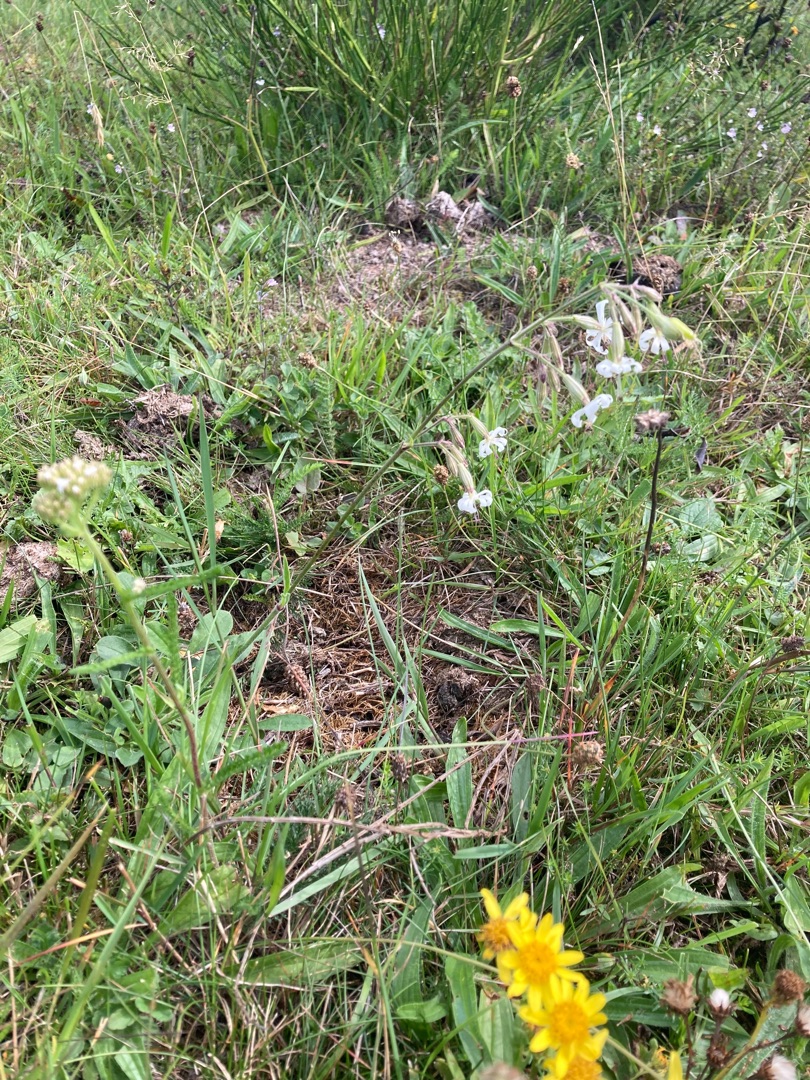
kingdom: Plantae
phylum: Tracheophyta
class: Magnoliopsida
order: Caryophyllales
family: Caryophyllaceae
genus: Silene
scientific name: Silene nutans
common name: Nikkende limurt
